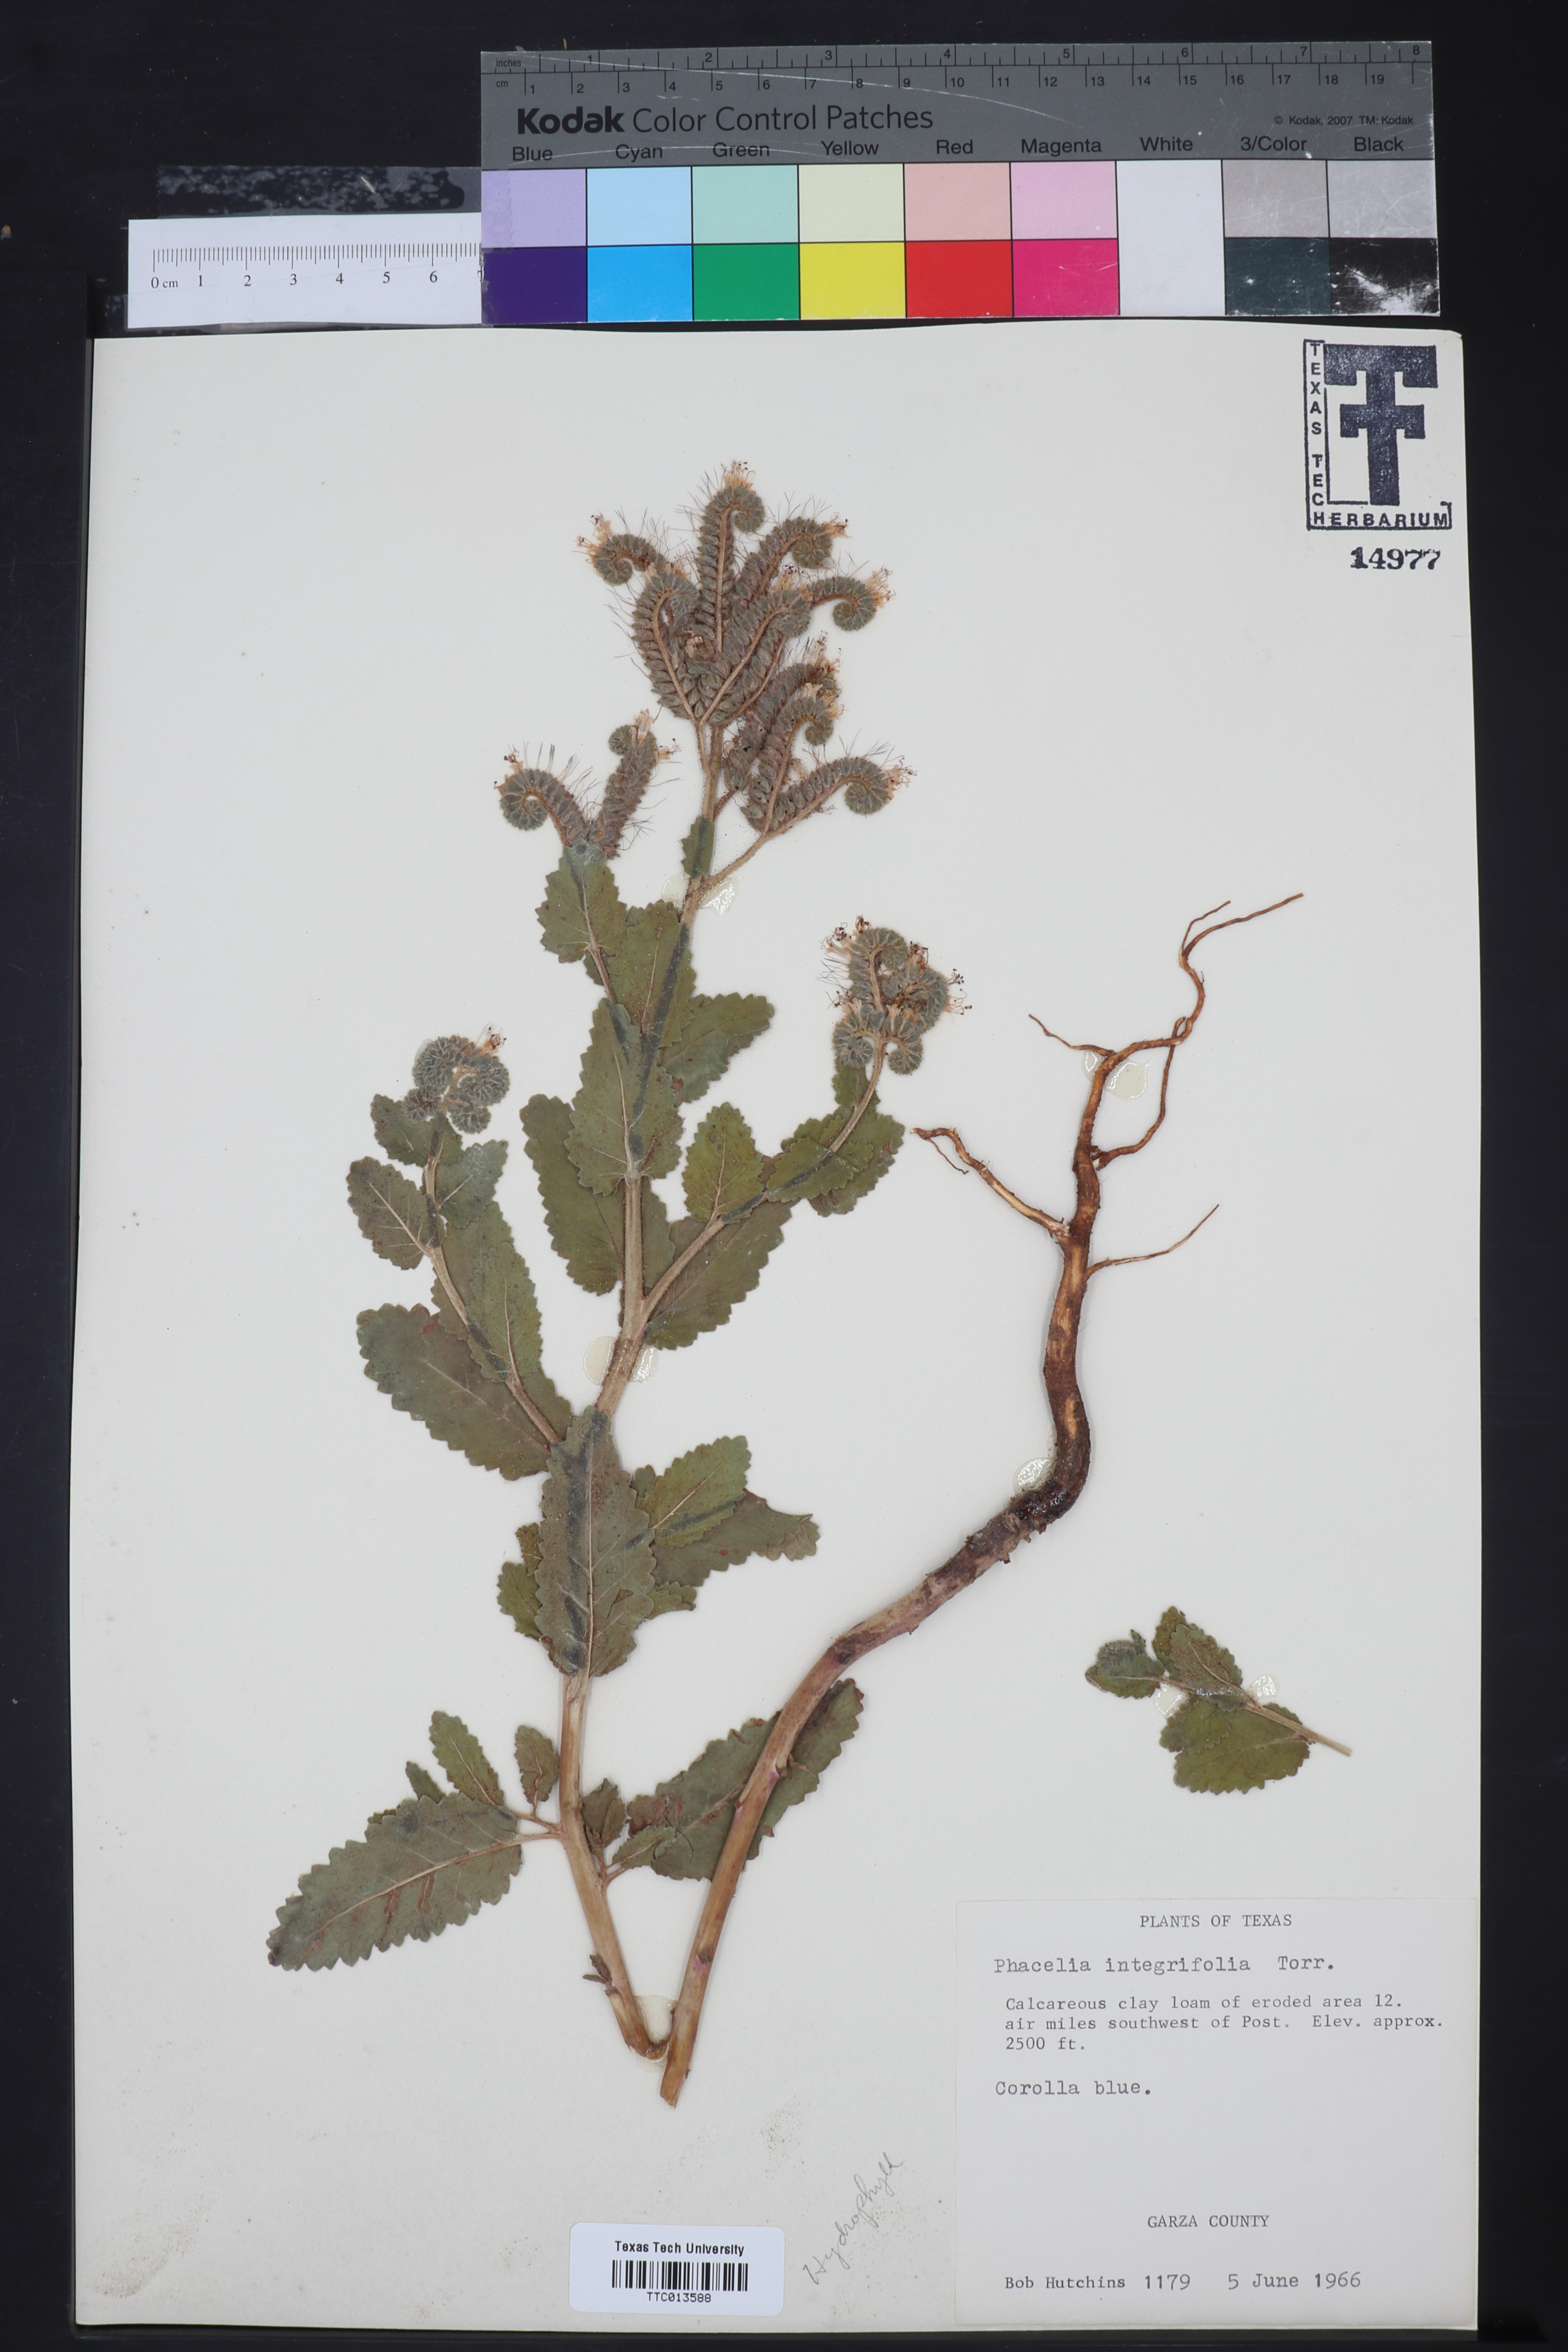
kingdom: Plantae
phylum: Tracheophyta
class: Magnoliopsida
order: Boraginales
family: Hydrophyllaceae
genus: Phacelia
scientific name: Phacelia integrifolia
